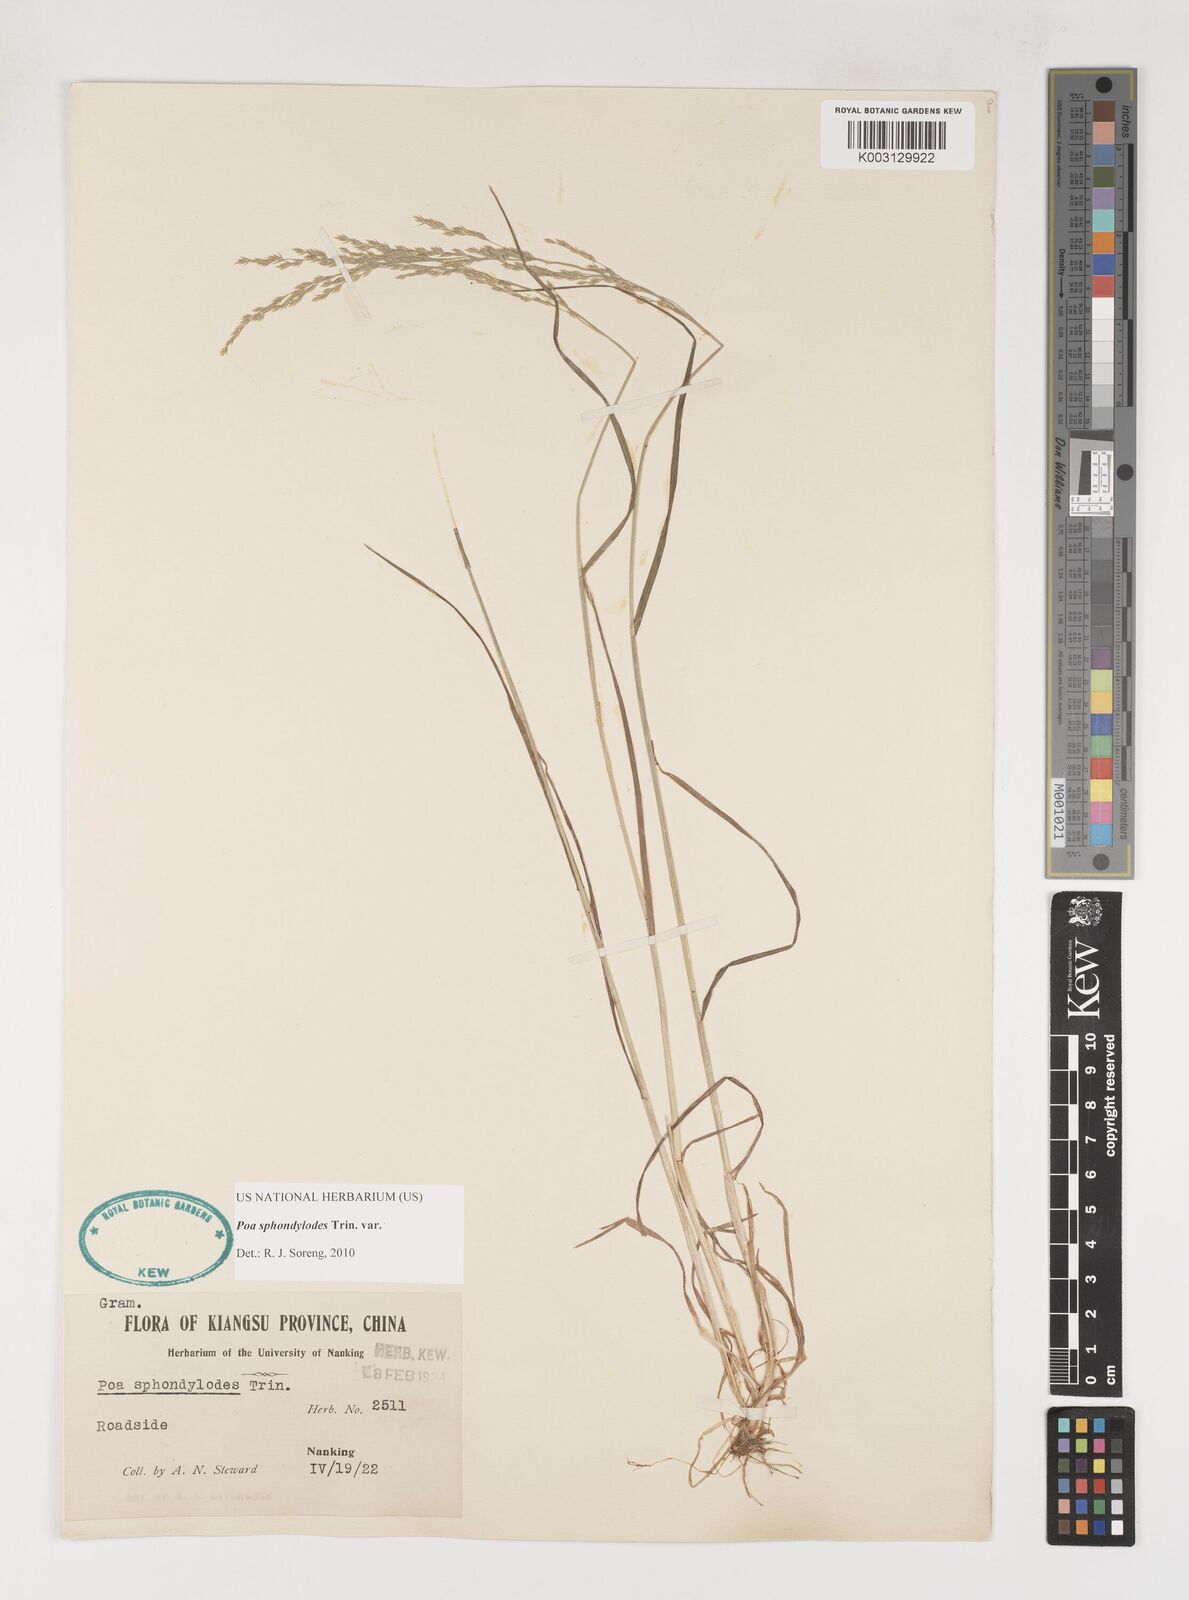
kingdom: Plantae
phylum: Tracheophyta
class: Liliopsida
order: Poales
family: Poaceae
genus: Poa
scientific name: Poa sphondylodes
